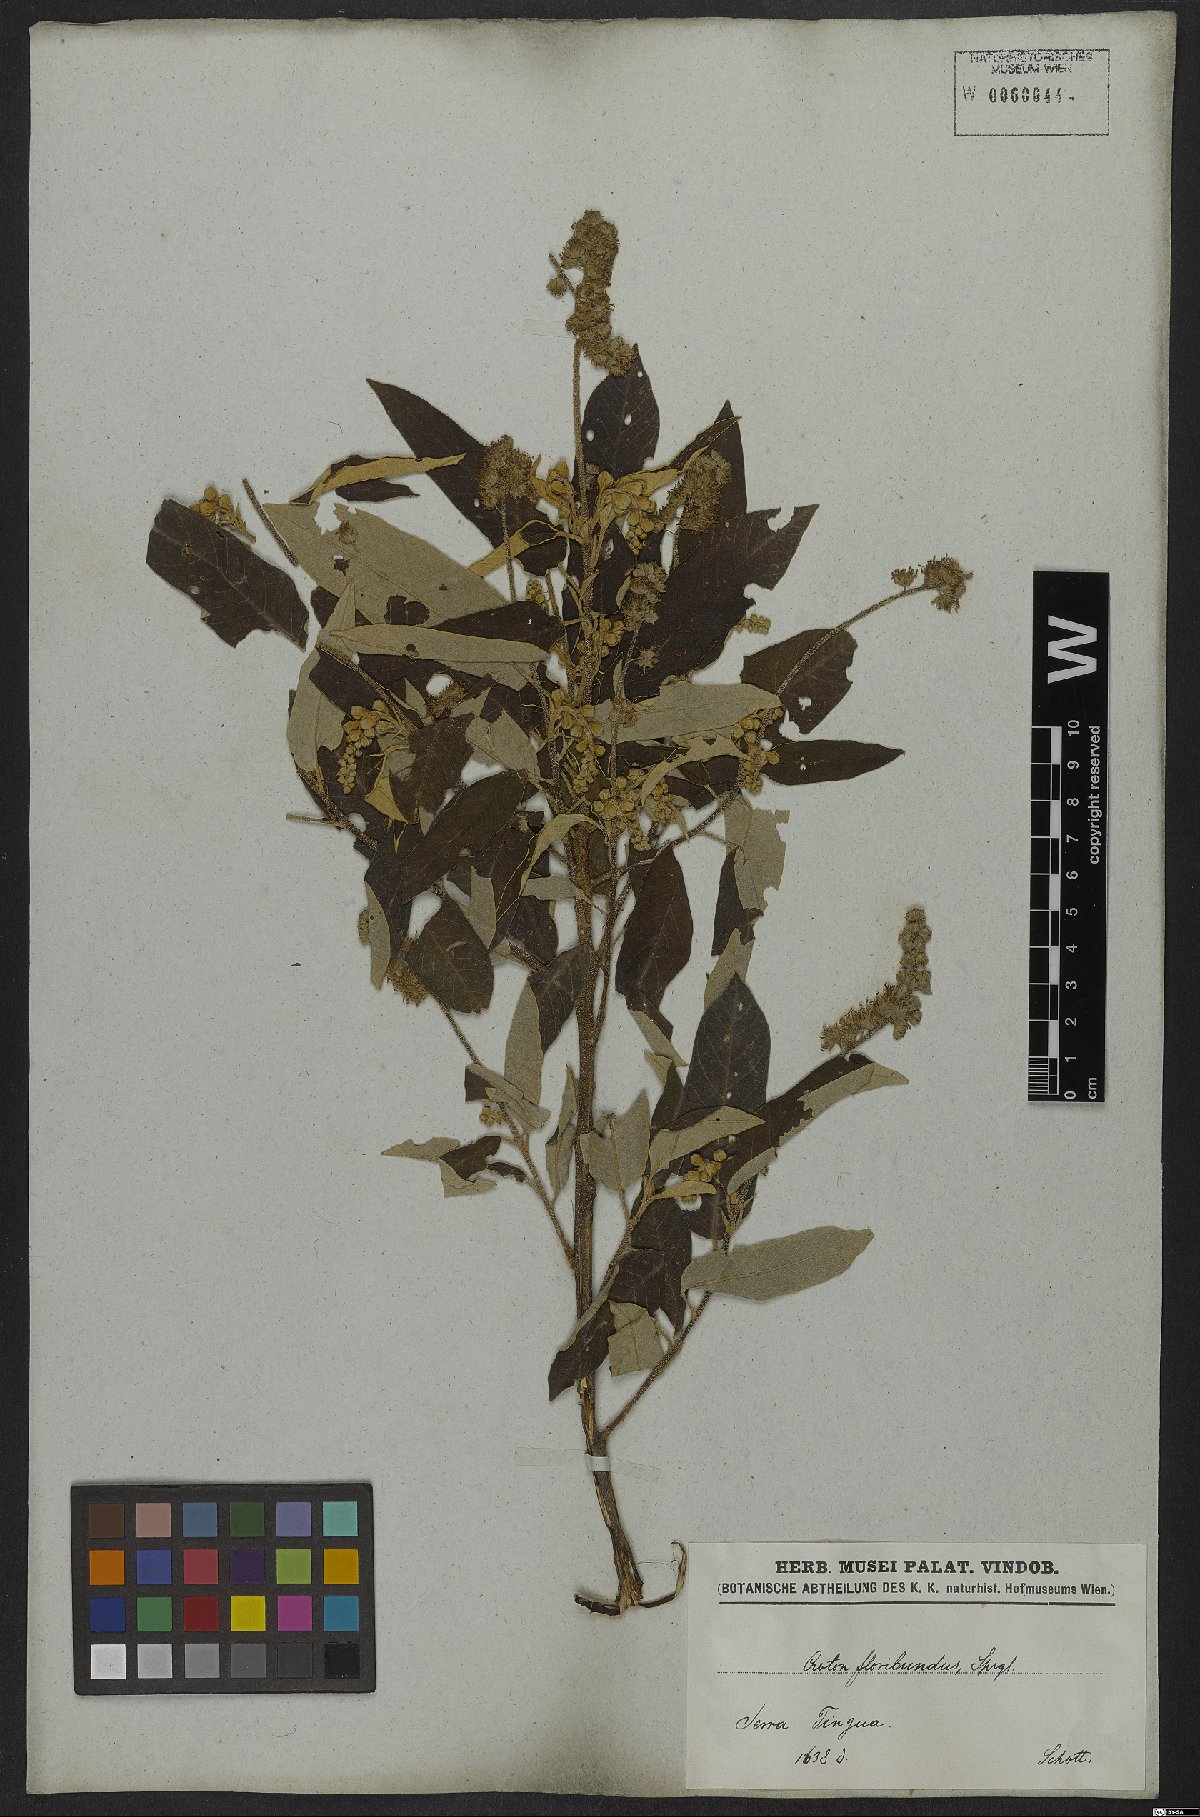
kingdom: Plantae
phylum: Tracheophyta
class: Magnoliopsida
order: Malpighiales
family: Euphorbiaceae
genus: Croton
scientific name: Croton floribundus
